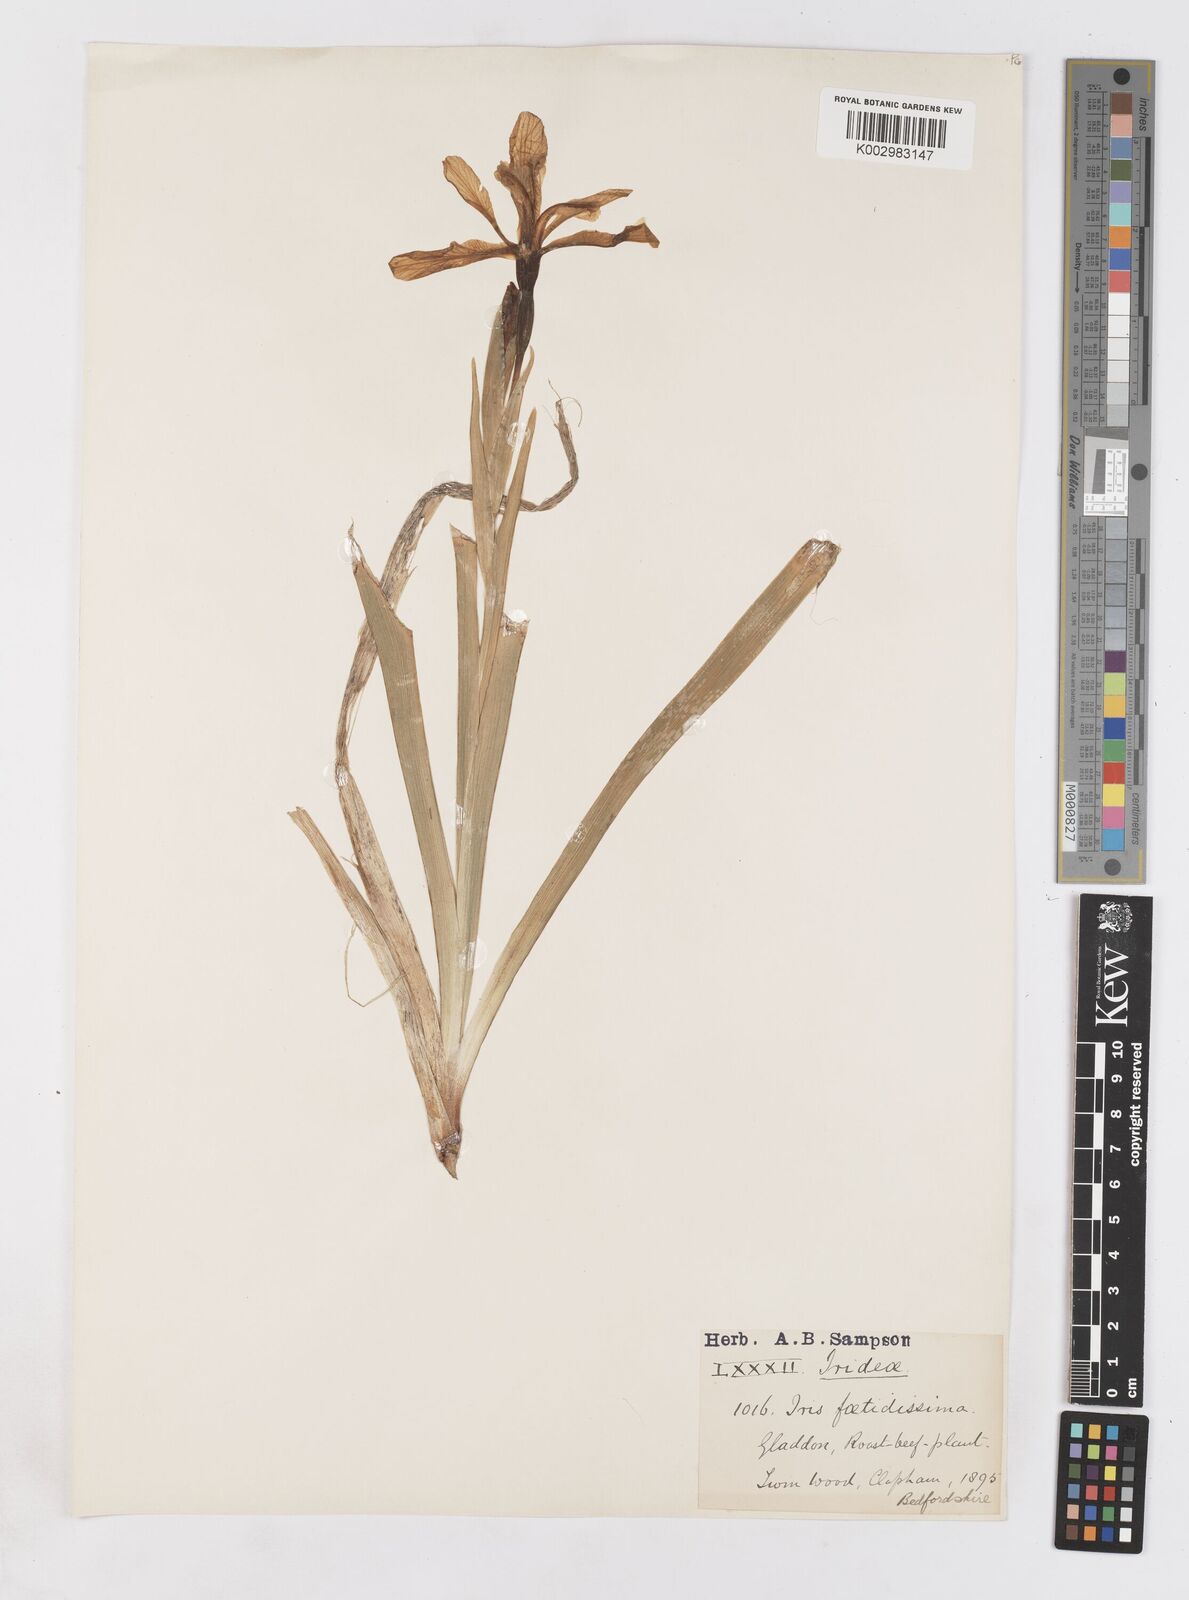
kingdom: Plantae
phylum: Tracheophyta
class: Liliopsida
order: Asparagales
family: Iridaceae
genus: Iris
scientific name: Iris foetidissima
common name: Stinking iris
